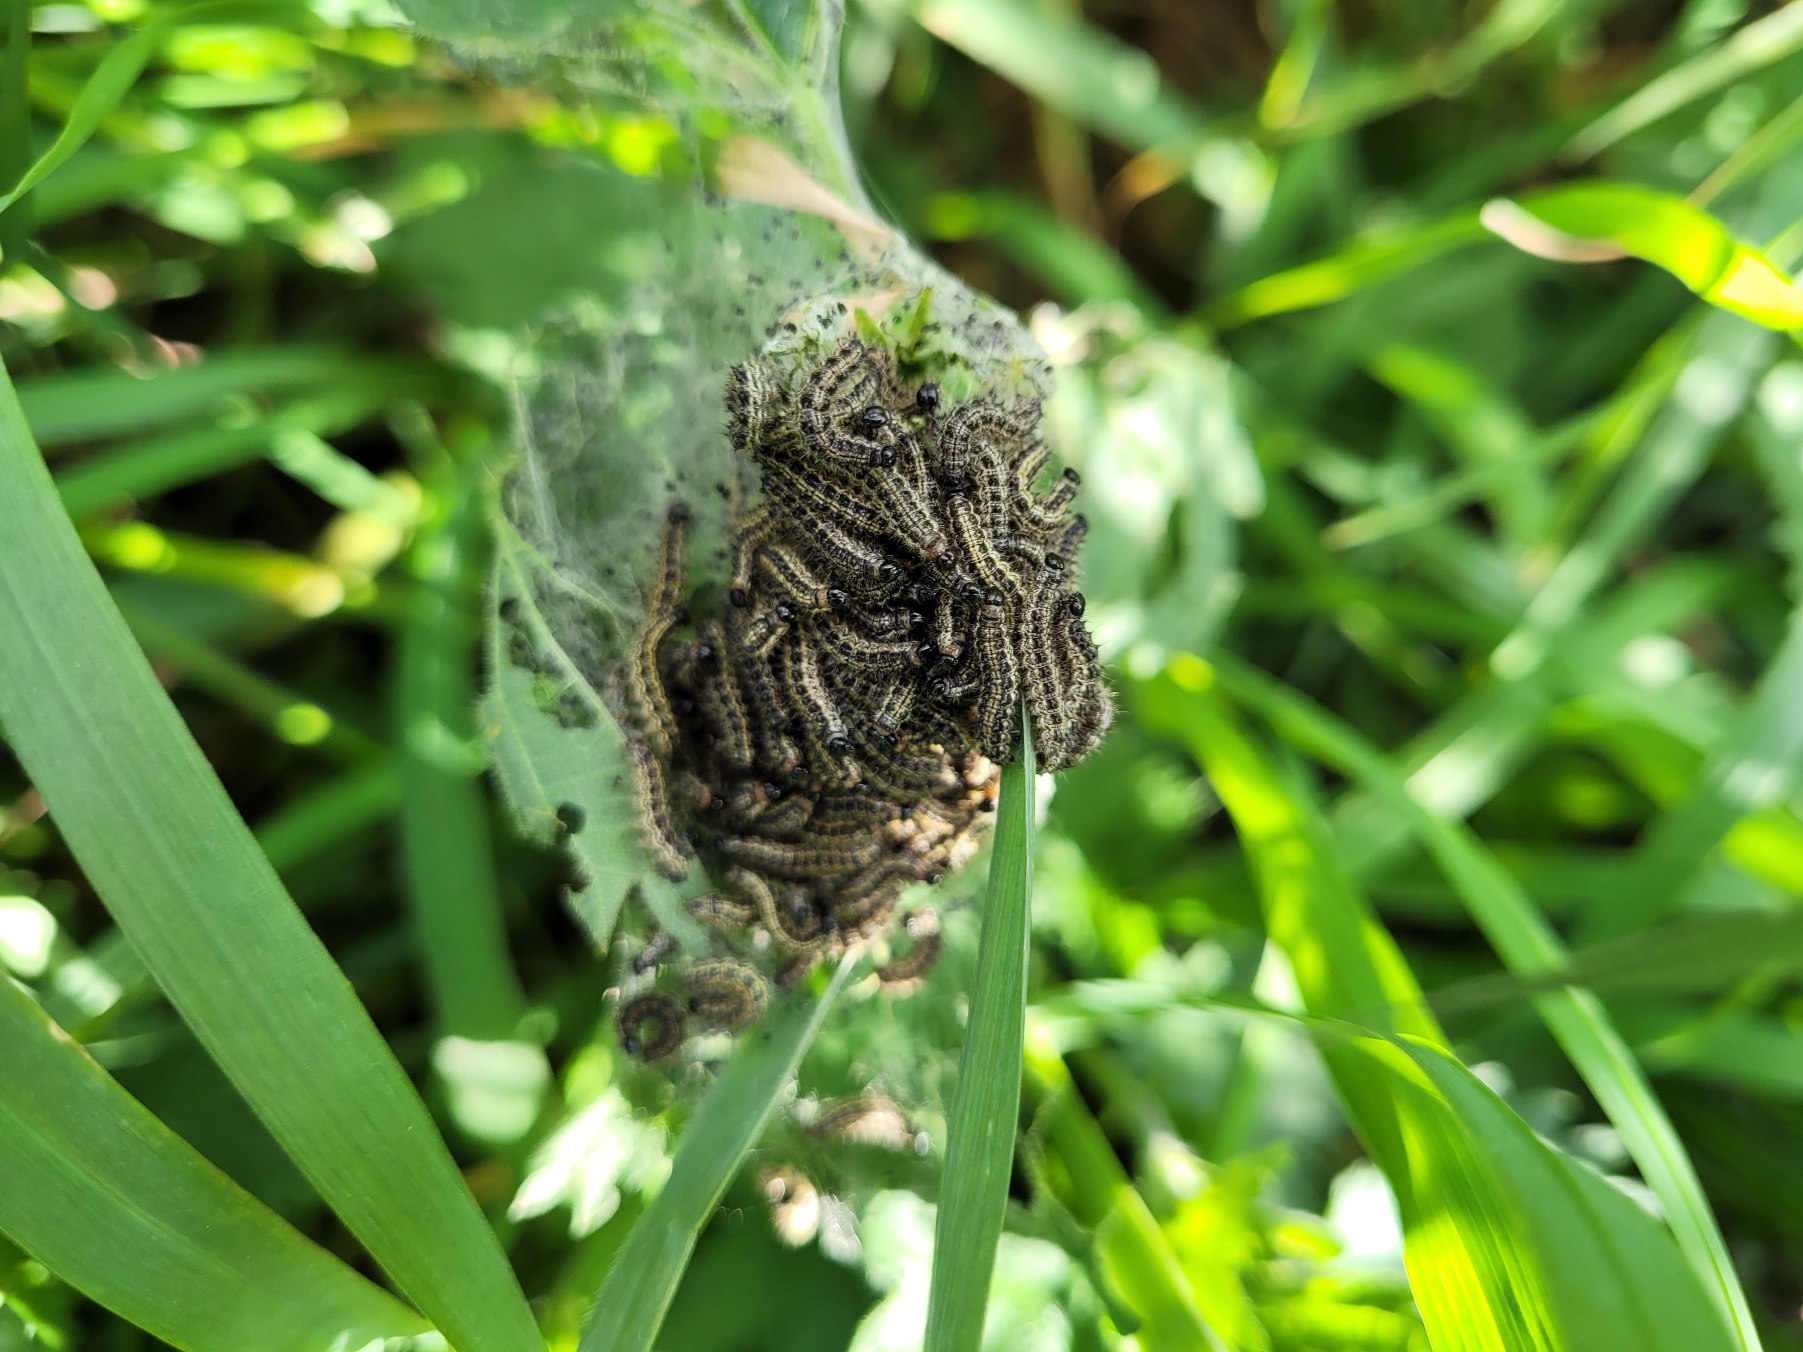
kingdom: Animalia
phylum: Arthropoda
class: Insecta
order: Lepidoptera
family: Nymphalidae
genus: Aglais
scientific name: Aglais urticae
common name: Nældens takvinge
